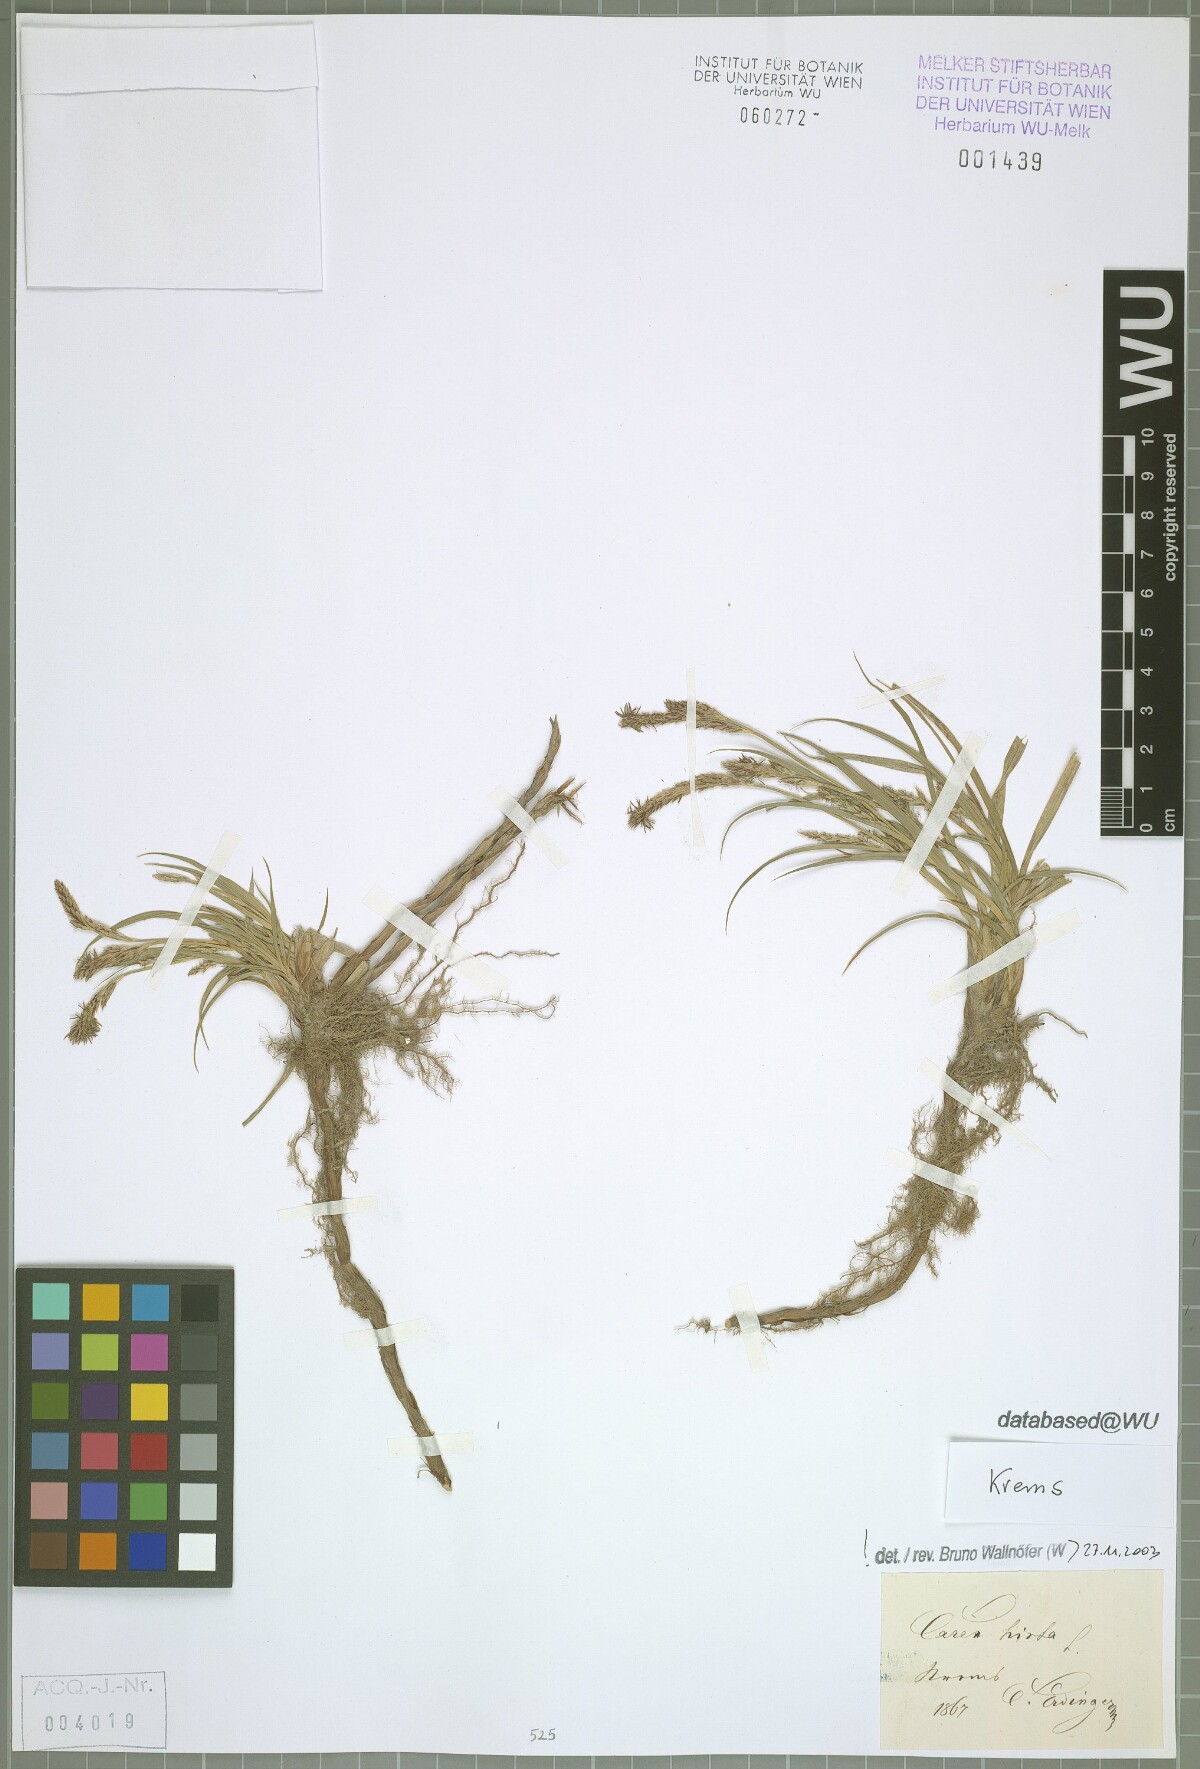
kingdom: Plantae
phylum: Tracheophyta
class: Liliopsida
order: Poales
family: Cyperaceae
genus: Carex
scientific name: Carex hirta
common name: Hairy sedge
